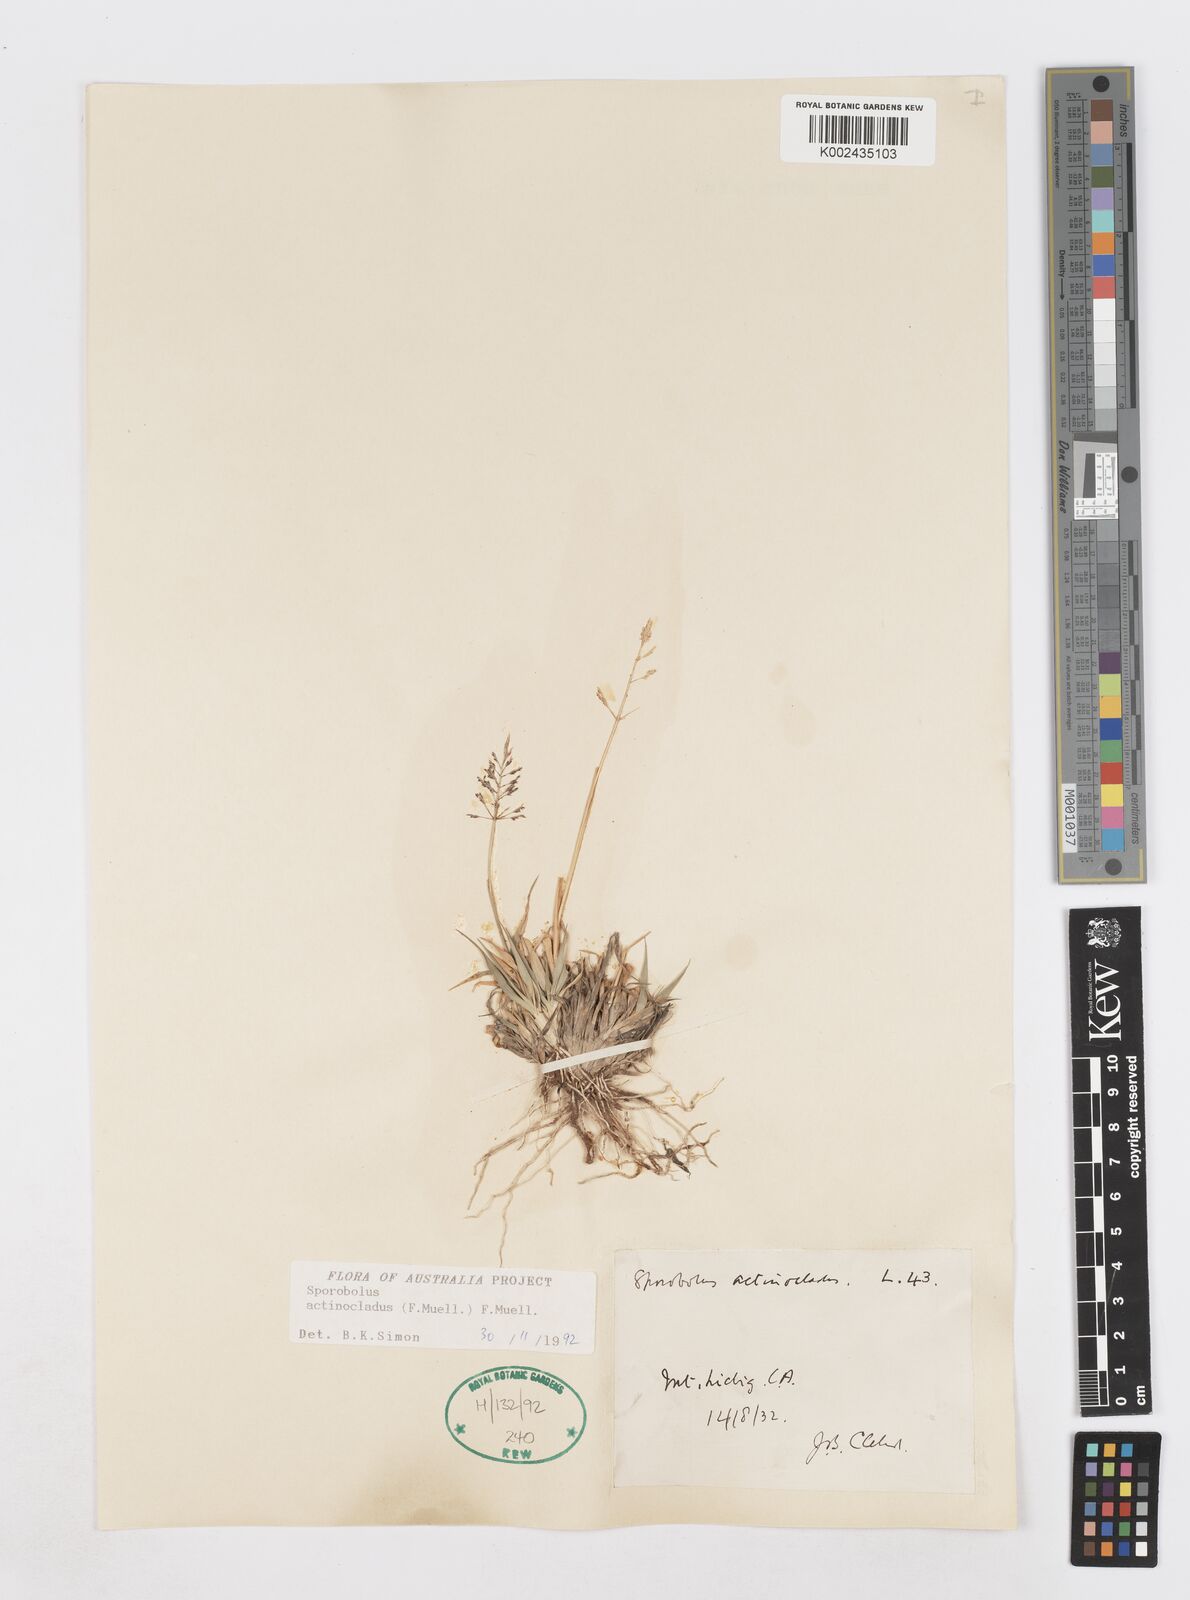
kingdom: Plantae
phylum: Tracheophyta
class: Liliopsida
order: Poales
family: Poaceae
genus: Sporobolus
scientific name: Sporobolus actinocladus
